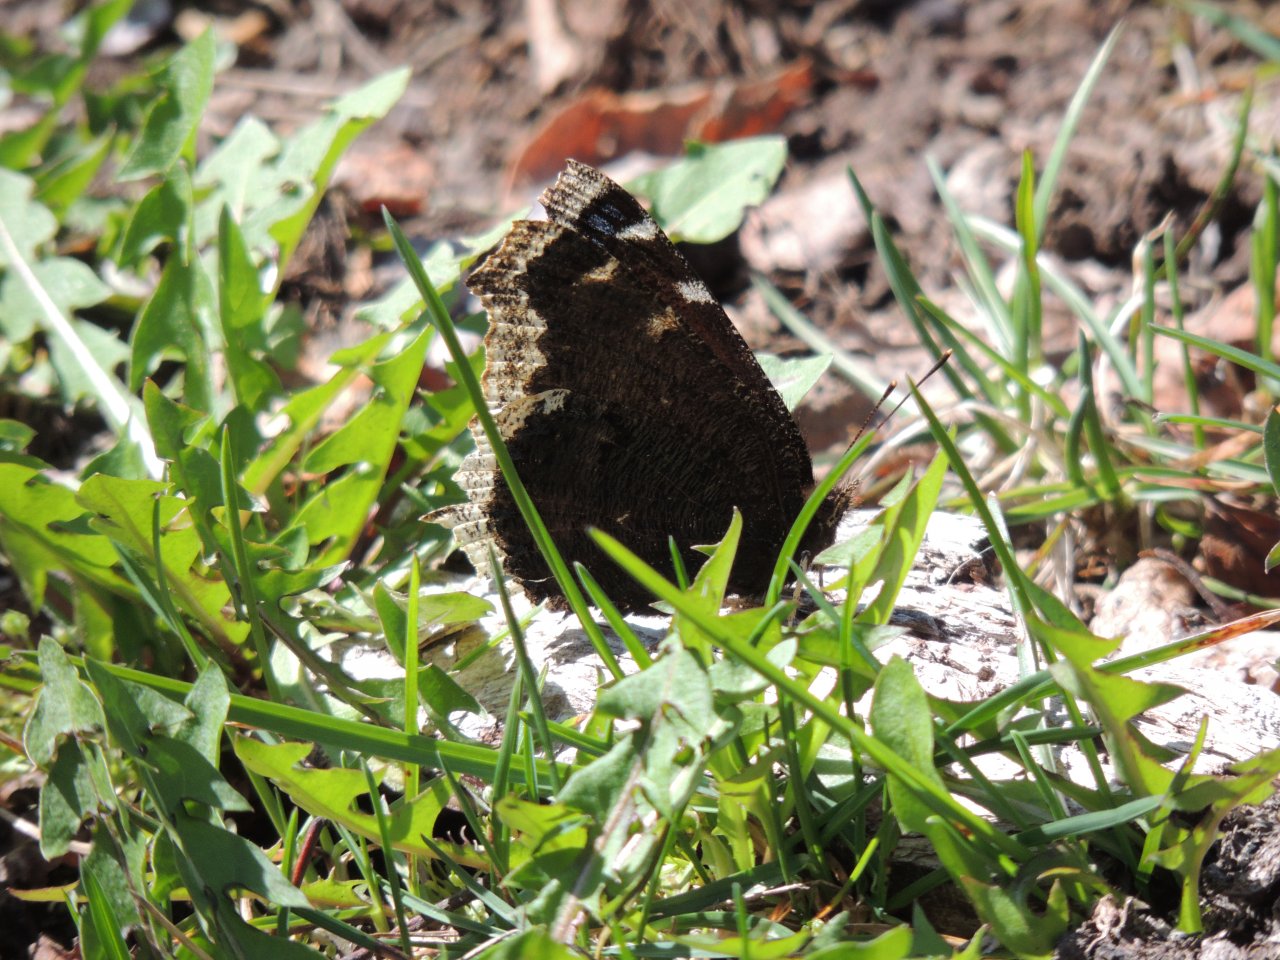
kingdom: Animalia
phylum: Arthropoda
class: Insecta
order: Lepidoptera
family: Nymphalidae
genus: Nymphalis
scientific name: Nymphalis antiopa
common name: Mourning Cloak
